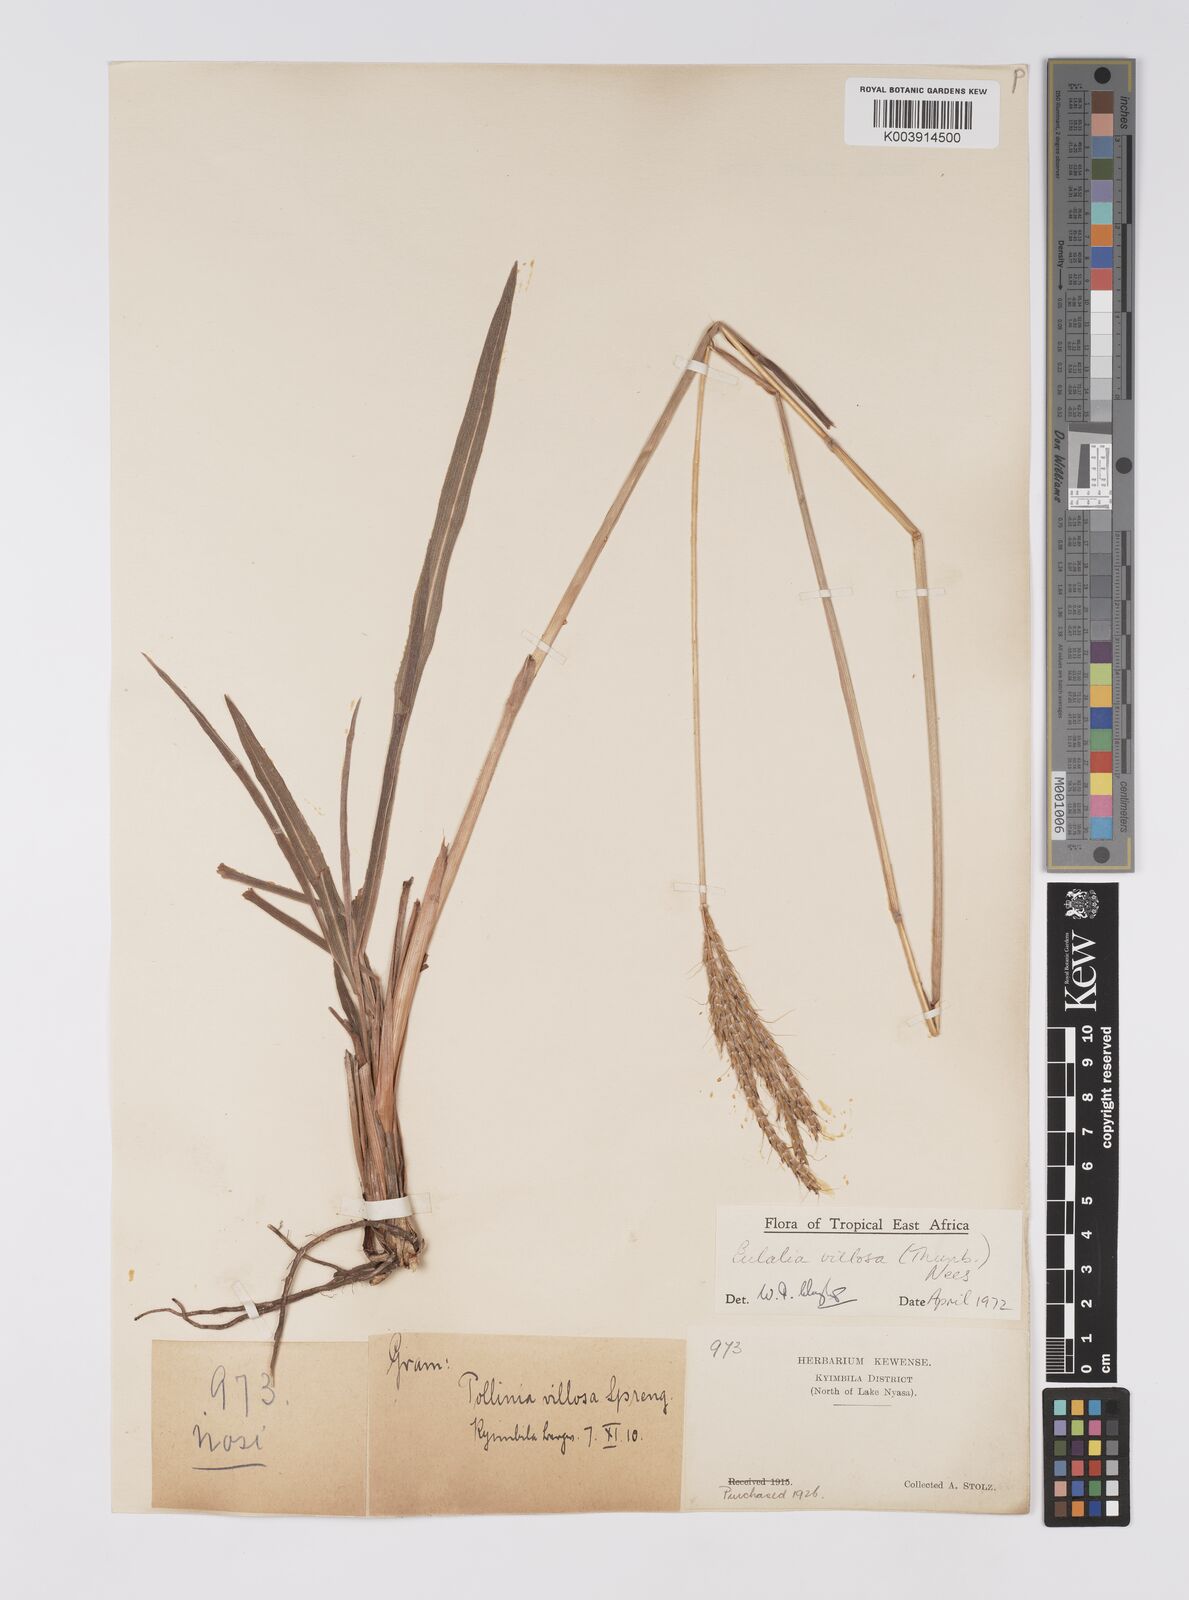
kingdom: Plantae
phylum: Tracheophyta
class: Liliopsida
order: Poales
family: Poaceae
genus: Eulalia
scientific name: Eulalia villosa
